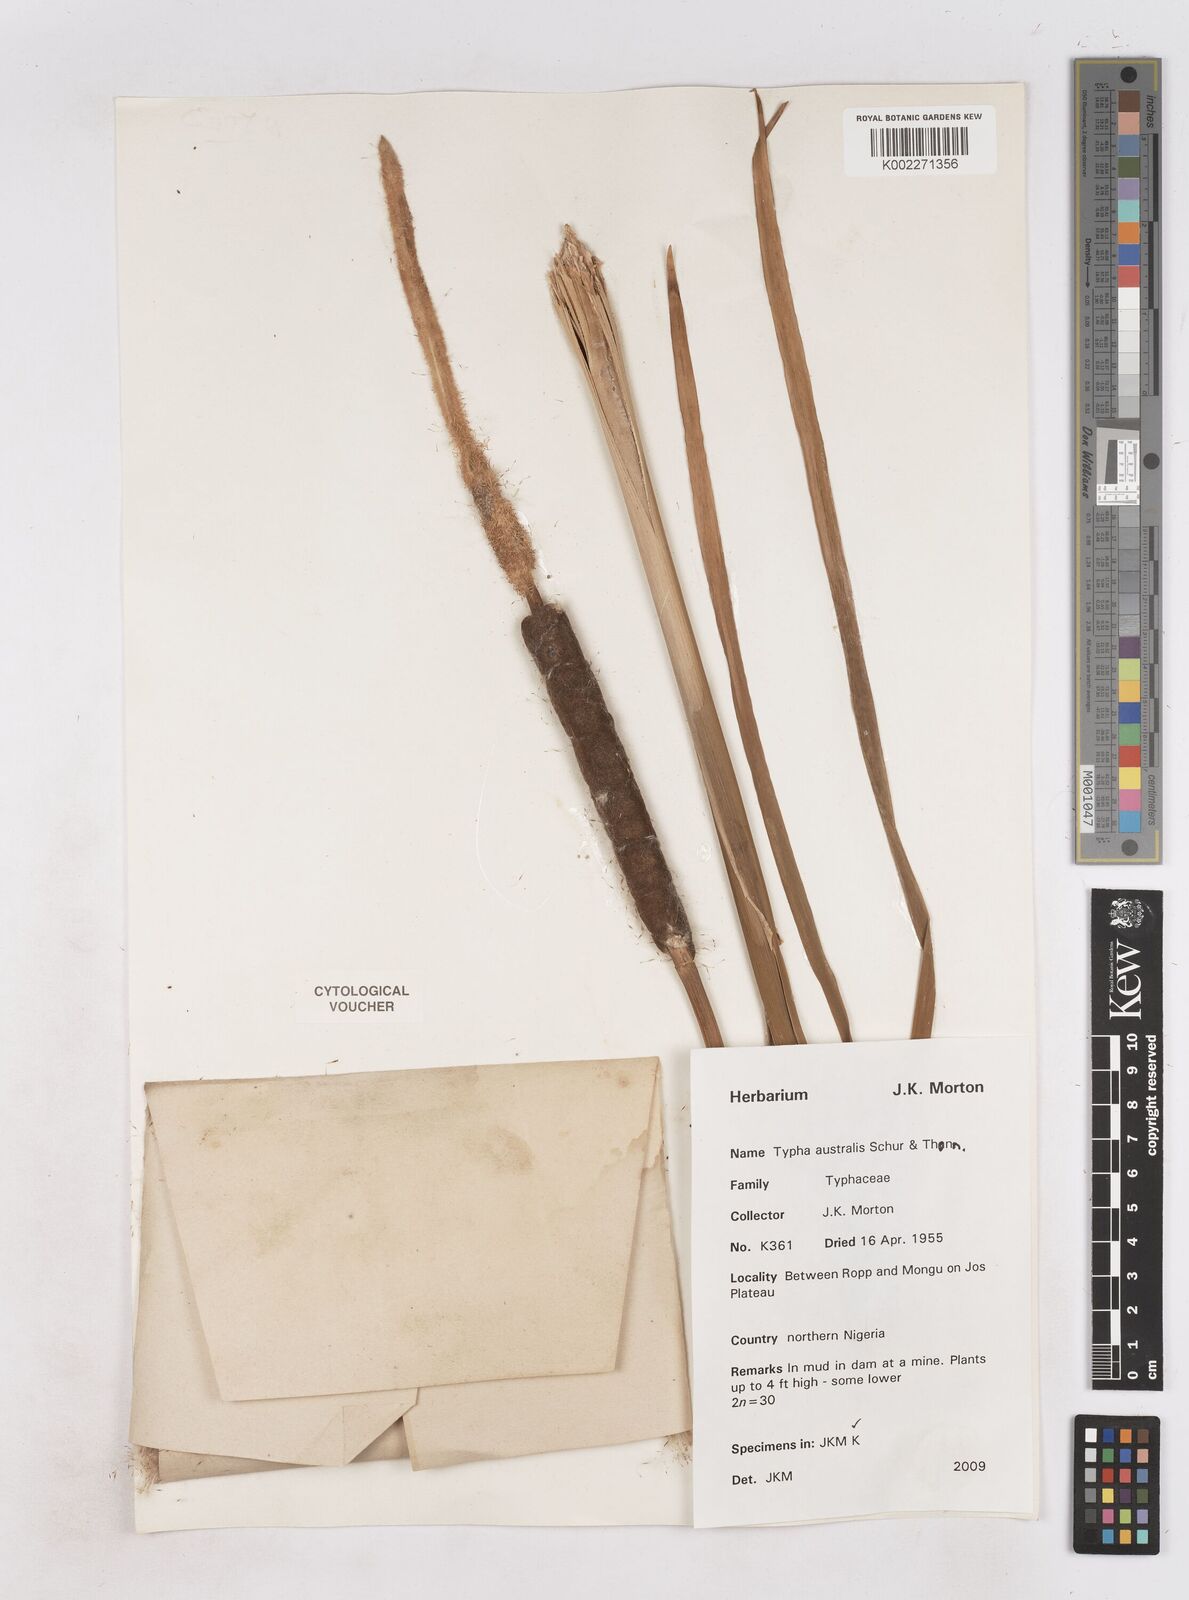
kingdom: Plantae
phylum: Tracheophyta
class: Liliopsida
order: Poales
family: Typhaceae
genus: Typha
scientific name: Typha domingensis
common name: Southern cattail
